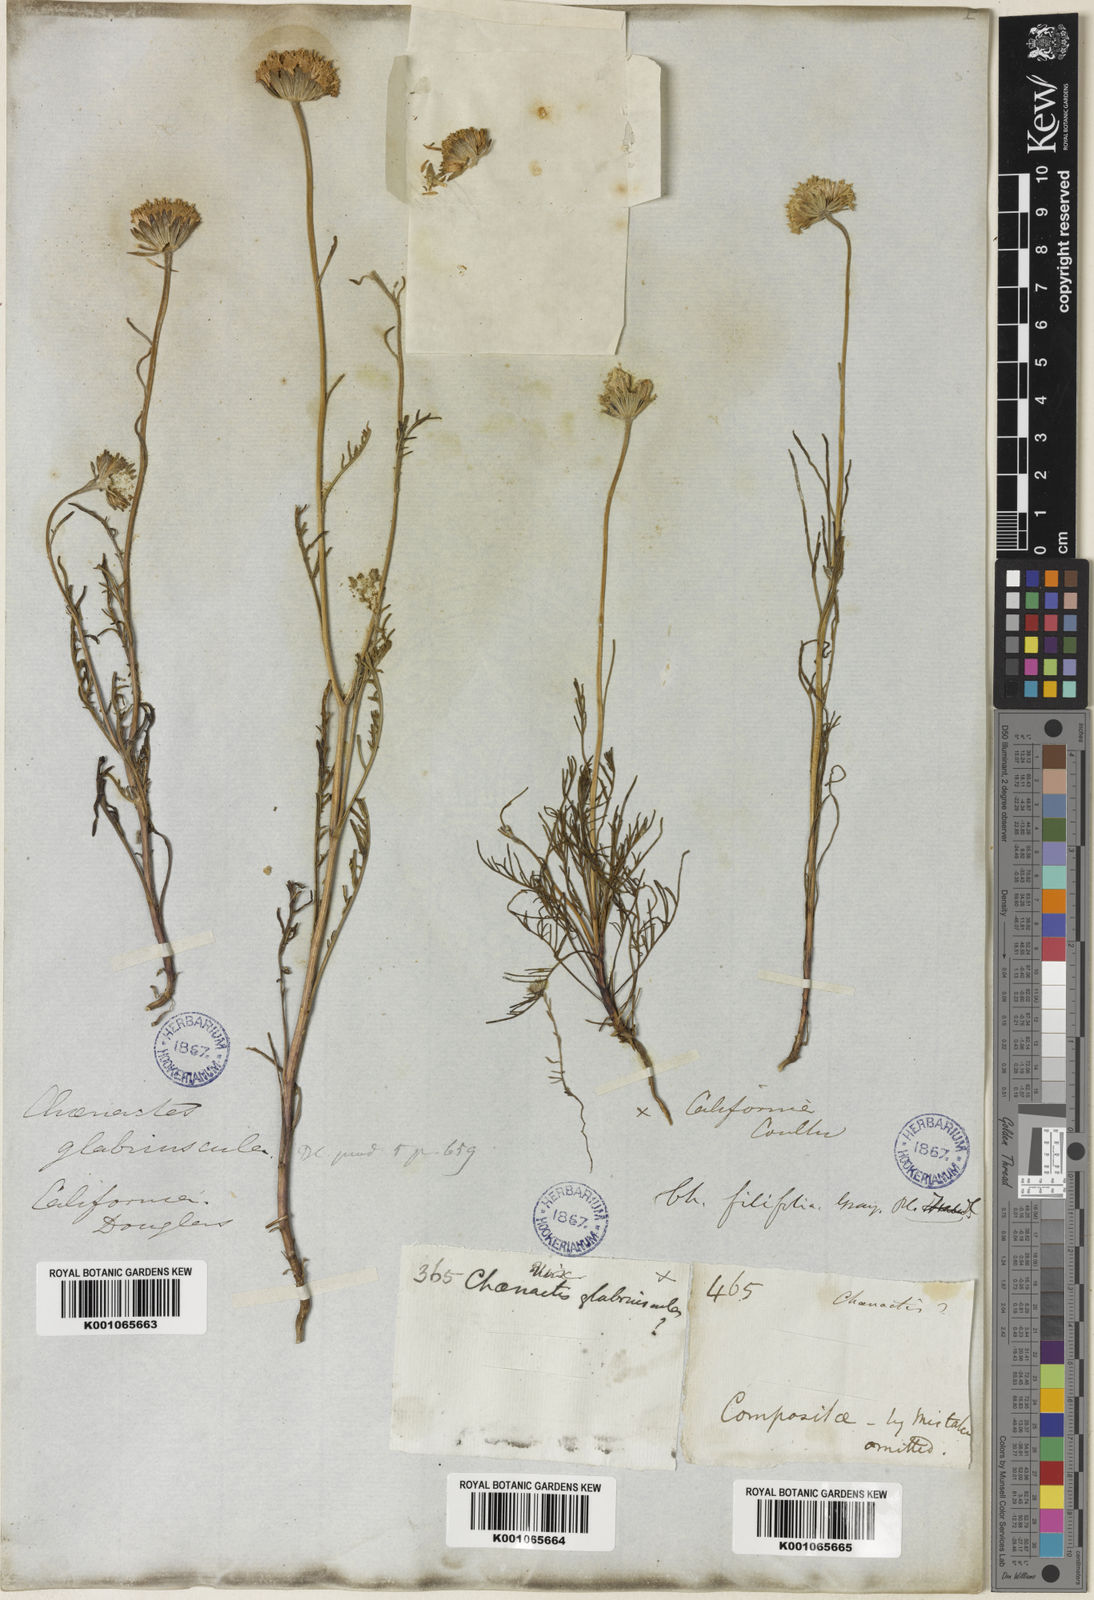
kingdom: Plantae
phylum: Tracheophyta
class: Magnoliopsida
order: Asterales
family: Asteraceae
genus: Chaenactis
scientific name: Chaenactis glabriuscula
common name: Yellow pincushion
